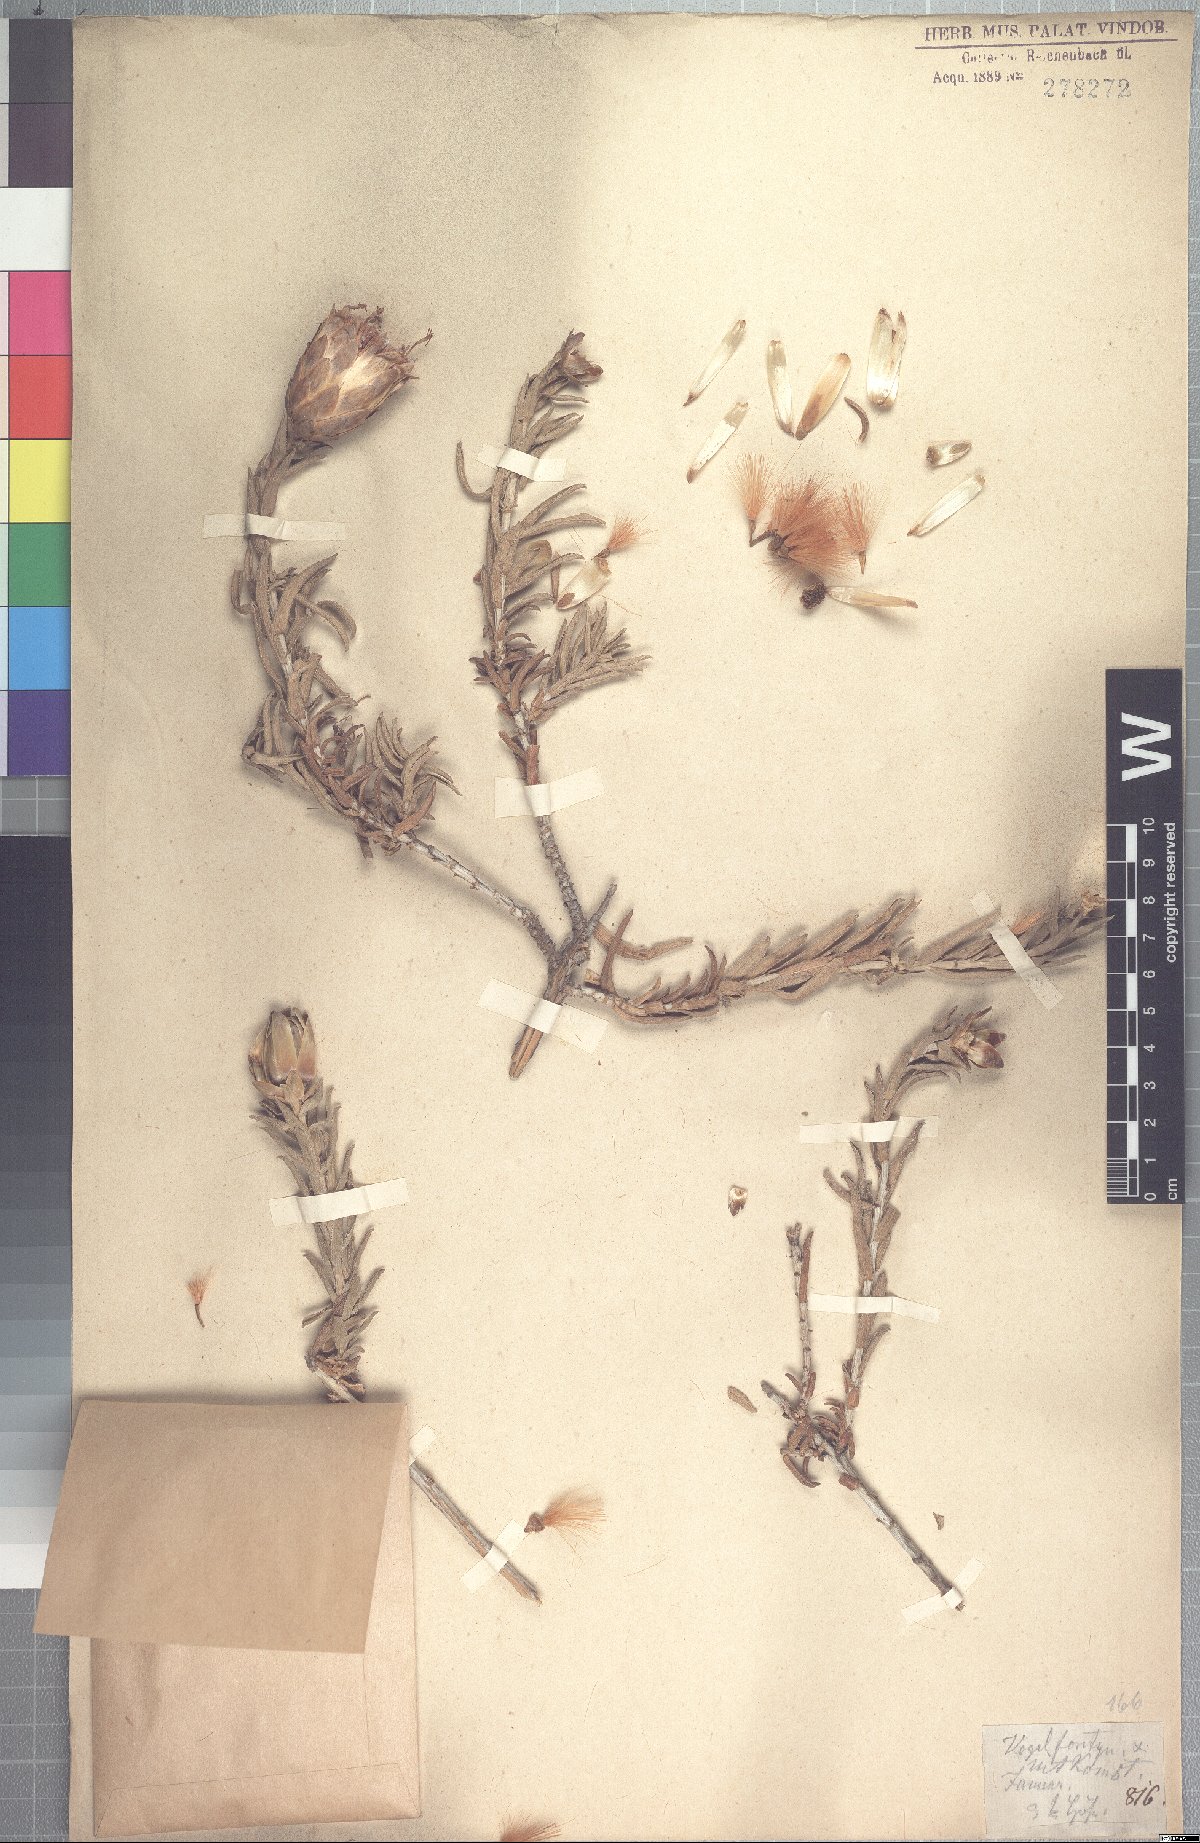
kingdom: Plantae
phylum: Tracheophyta
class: Magnoliopsida
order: Asterales
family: Asteraceae
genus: Pteronia
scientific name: Pteronia onobromoides
